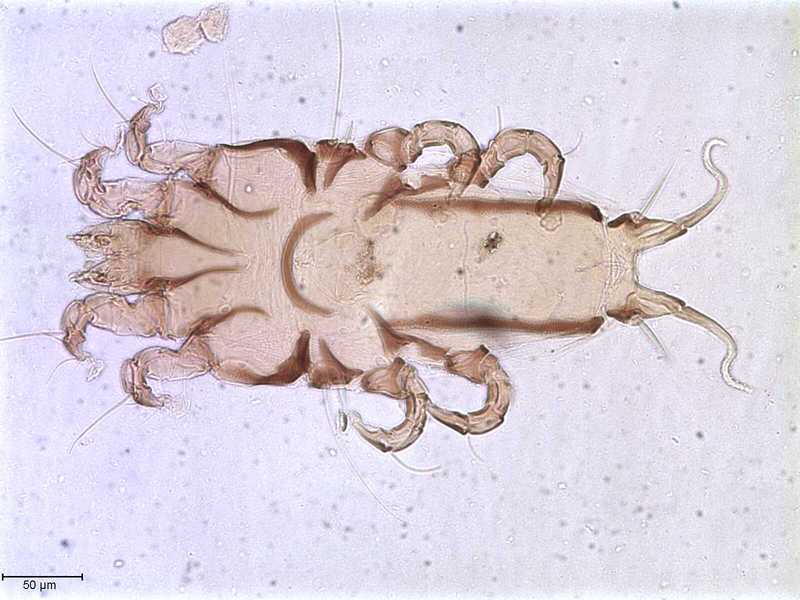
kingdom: Animalia
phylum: Arthropoda
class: Arachnida
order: Sarcoptiformes
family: Proctophyllodidae
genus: Proctophyllodes
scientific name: Proctophyllodes
